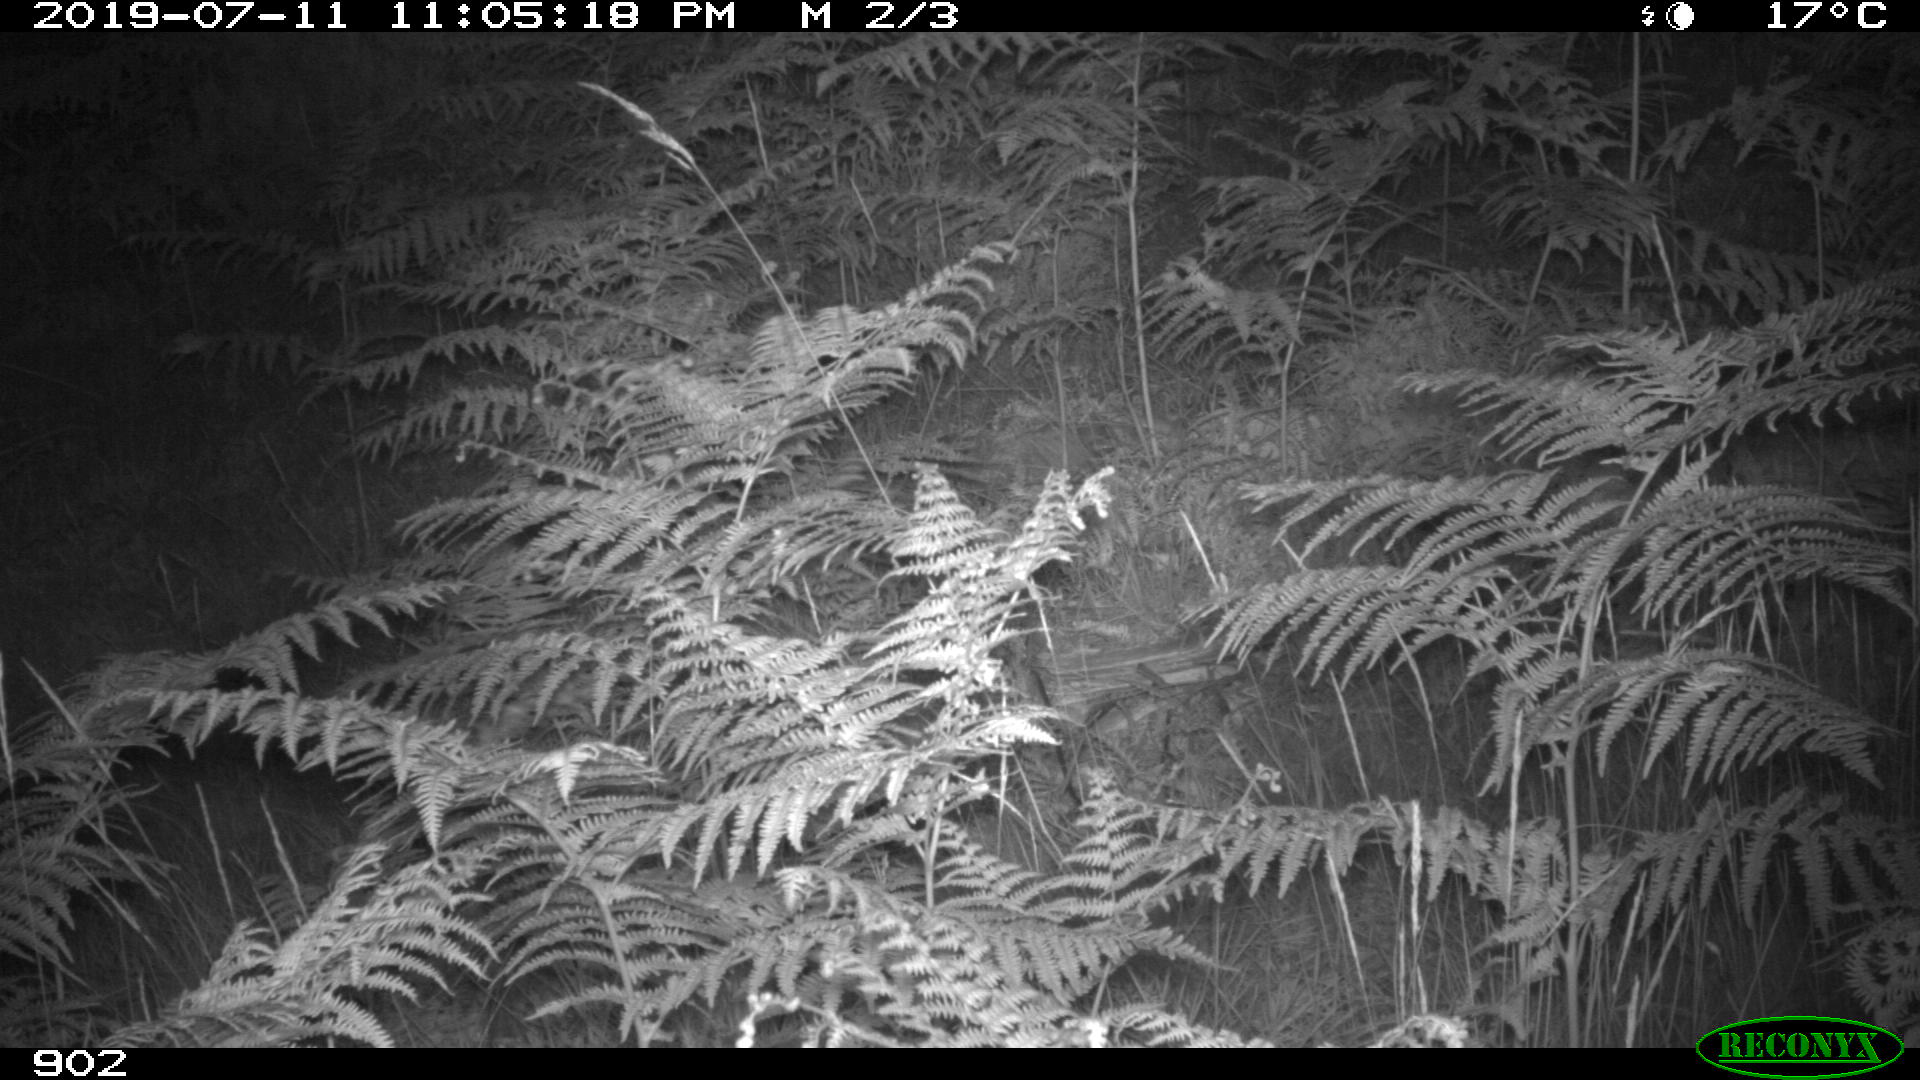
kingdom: Animalia
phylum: Chordata
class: Mammalia
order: Artiodactyla
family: Suidae
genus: Sus
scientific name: Sus scrofa
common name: Wild boar
